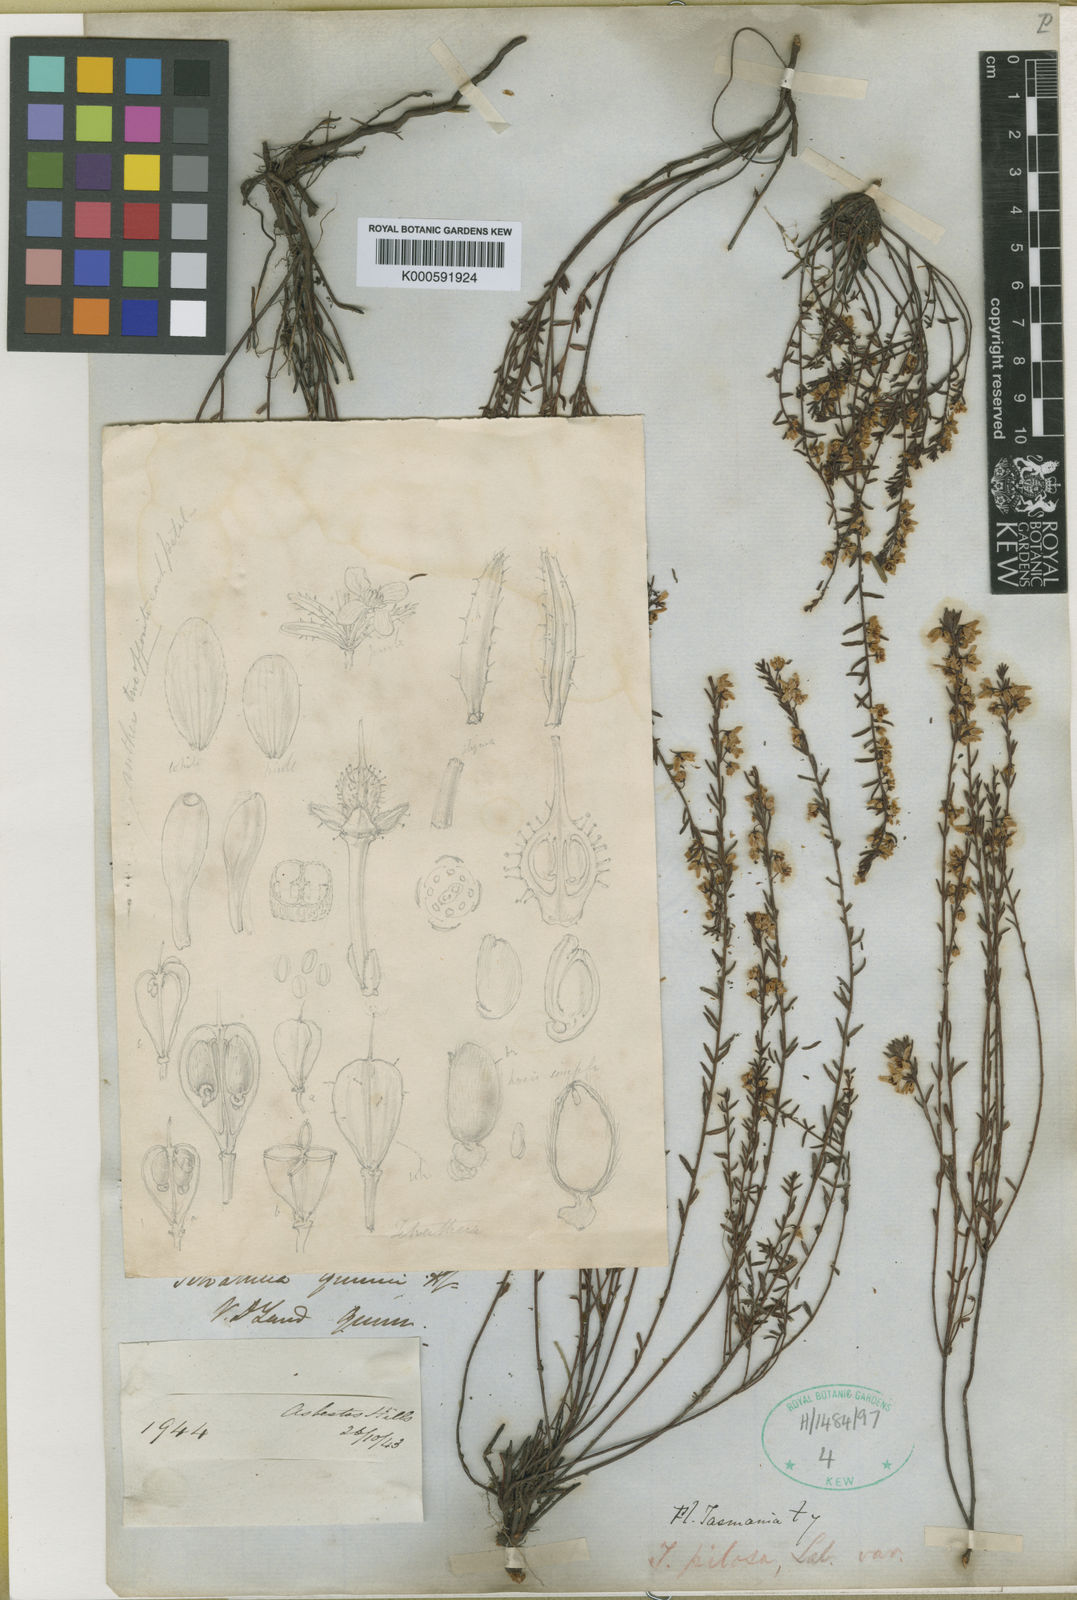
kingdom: Plantae
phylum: Tracheophyta
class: Magnoliopsida
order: Oxalidales
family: Elaeocarpaceae
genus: Tetratheca
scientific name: Tetratheca gunnii
